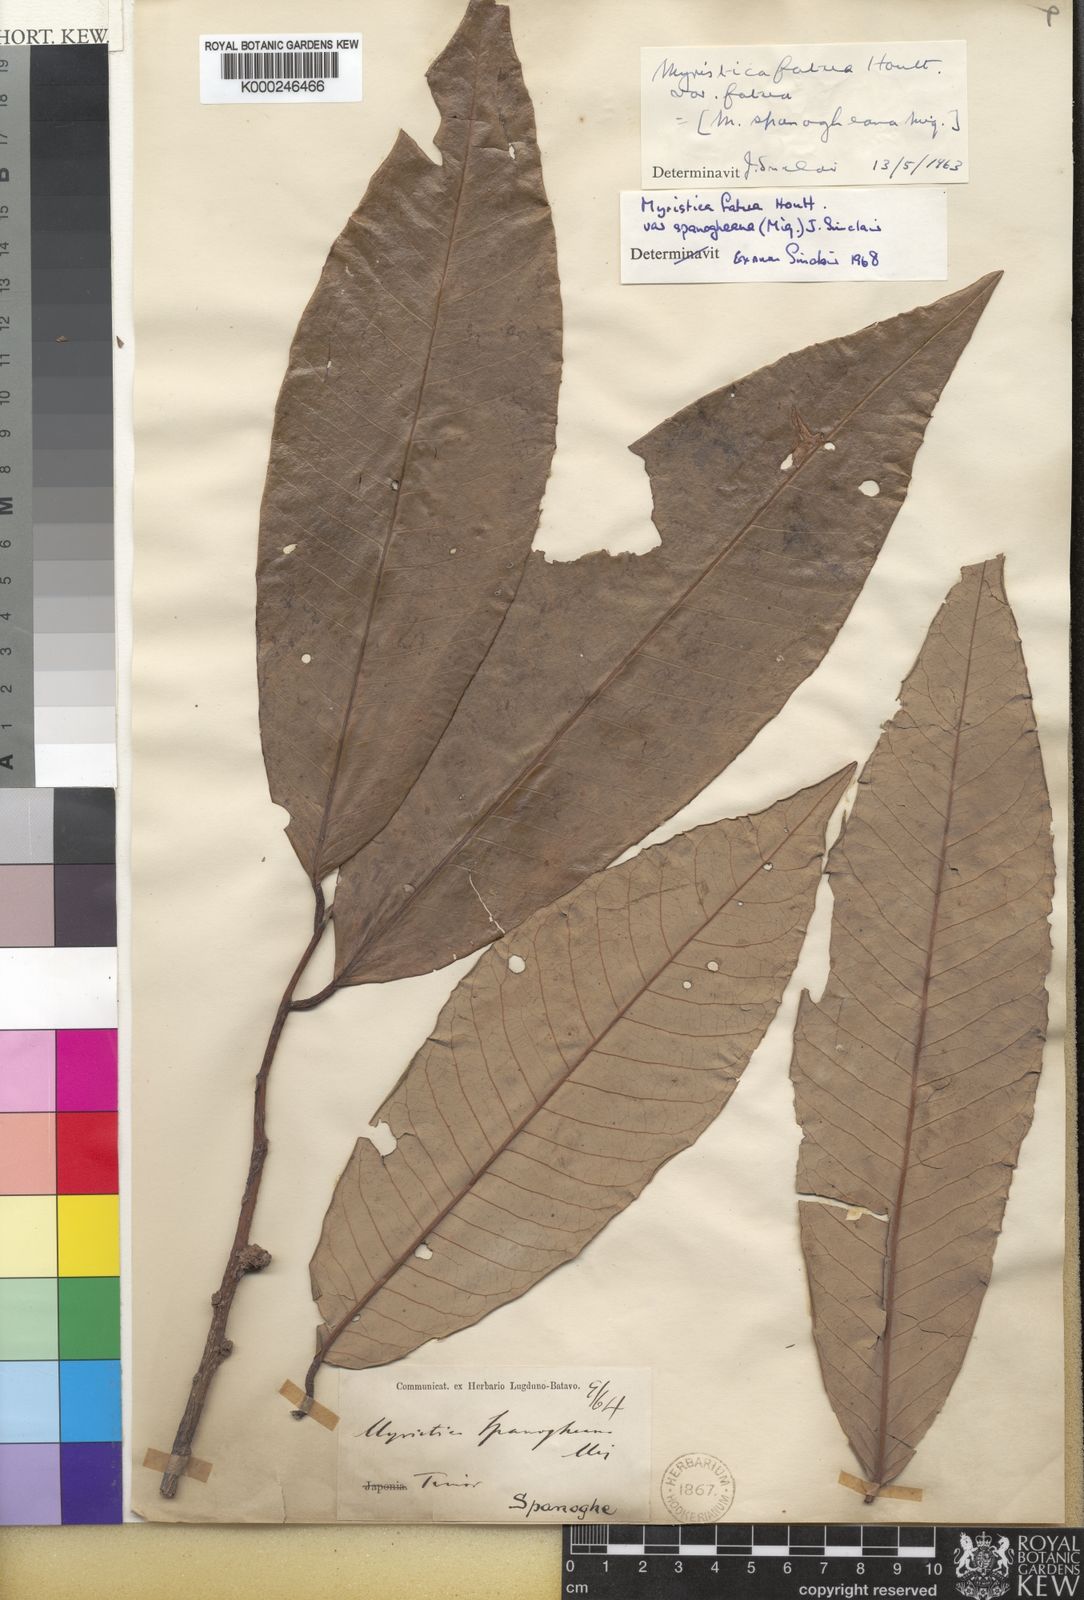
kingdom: Plantae
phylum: Tracheophyta
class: Magnoliopsida
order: Magnoliales
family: Myristicaceae
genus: Myristica
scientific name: Myristica fatua
